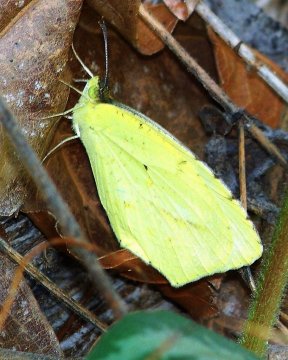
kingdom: Animalia
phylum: Arthropoda
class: Insecta
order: Lepidoptera
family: Pieridae
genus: Eurema
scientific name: Eurema boisduvaliana
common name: Boisduval's Yellow
